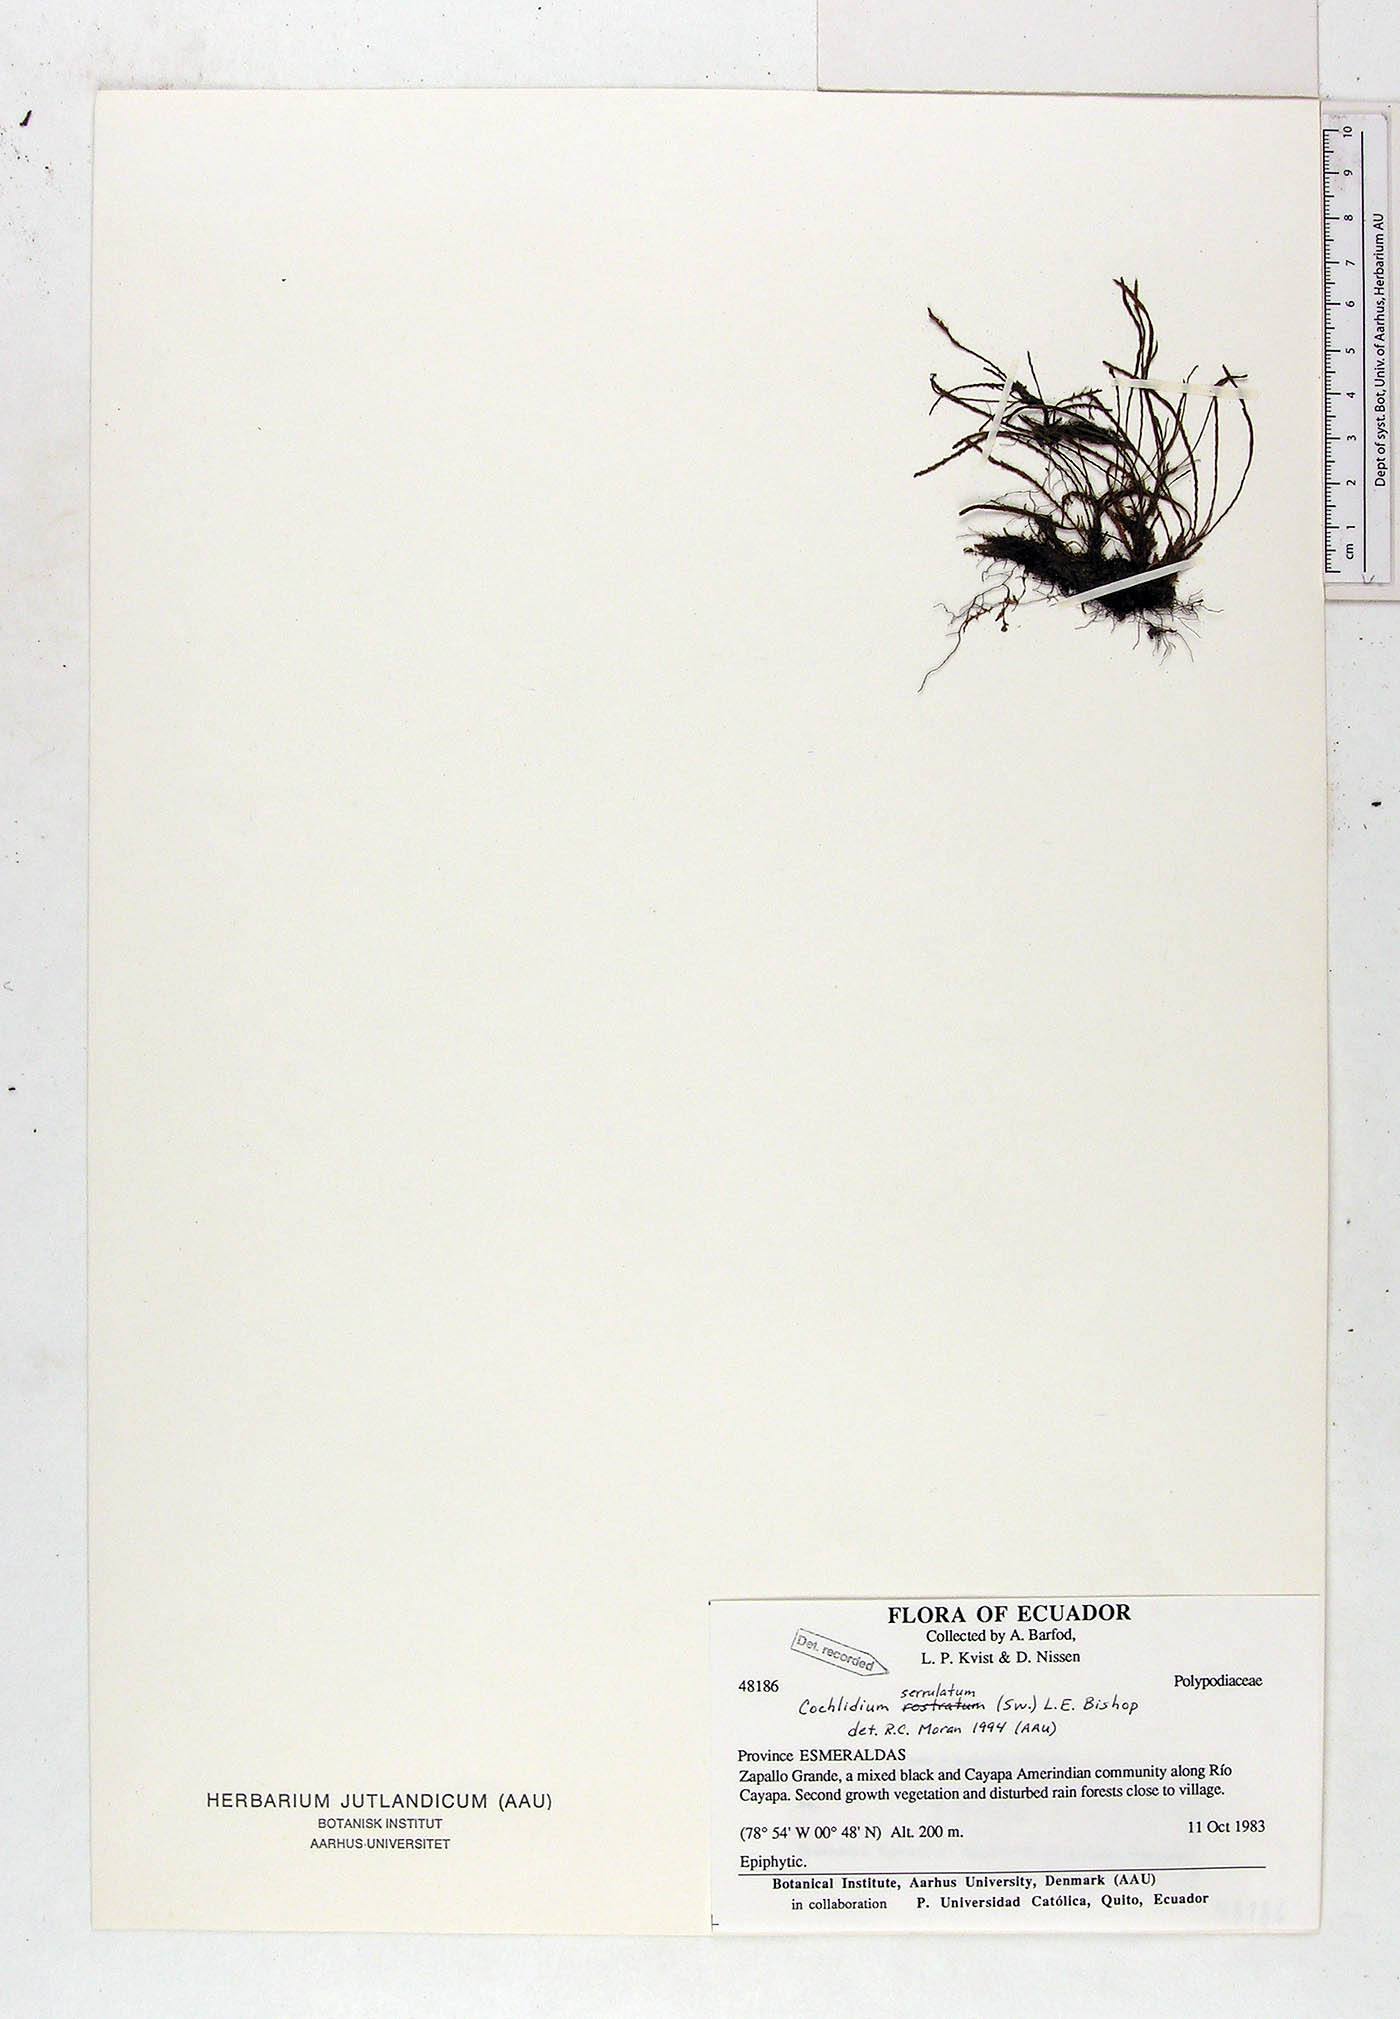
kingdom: Plantae
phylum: Tracheophyta
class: Polypodiopsida
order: Polypodiales
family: Polypodiaceae
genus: Cochlidium
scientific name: Cochlidium serrulatum
